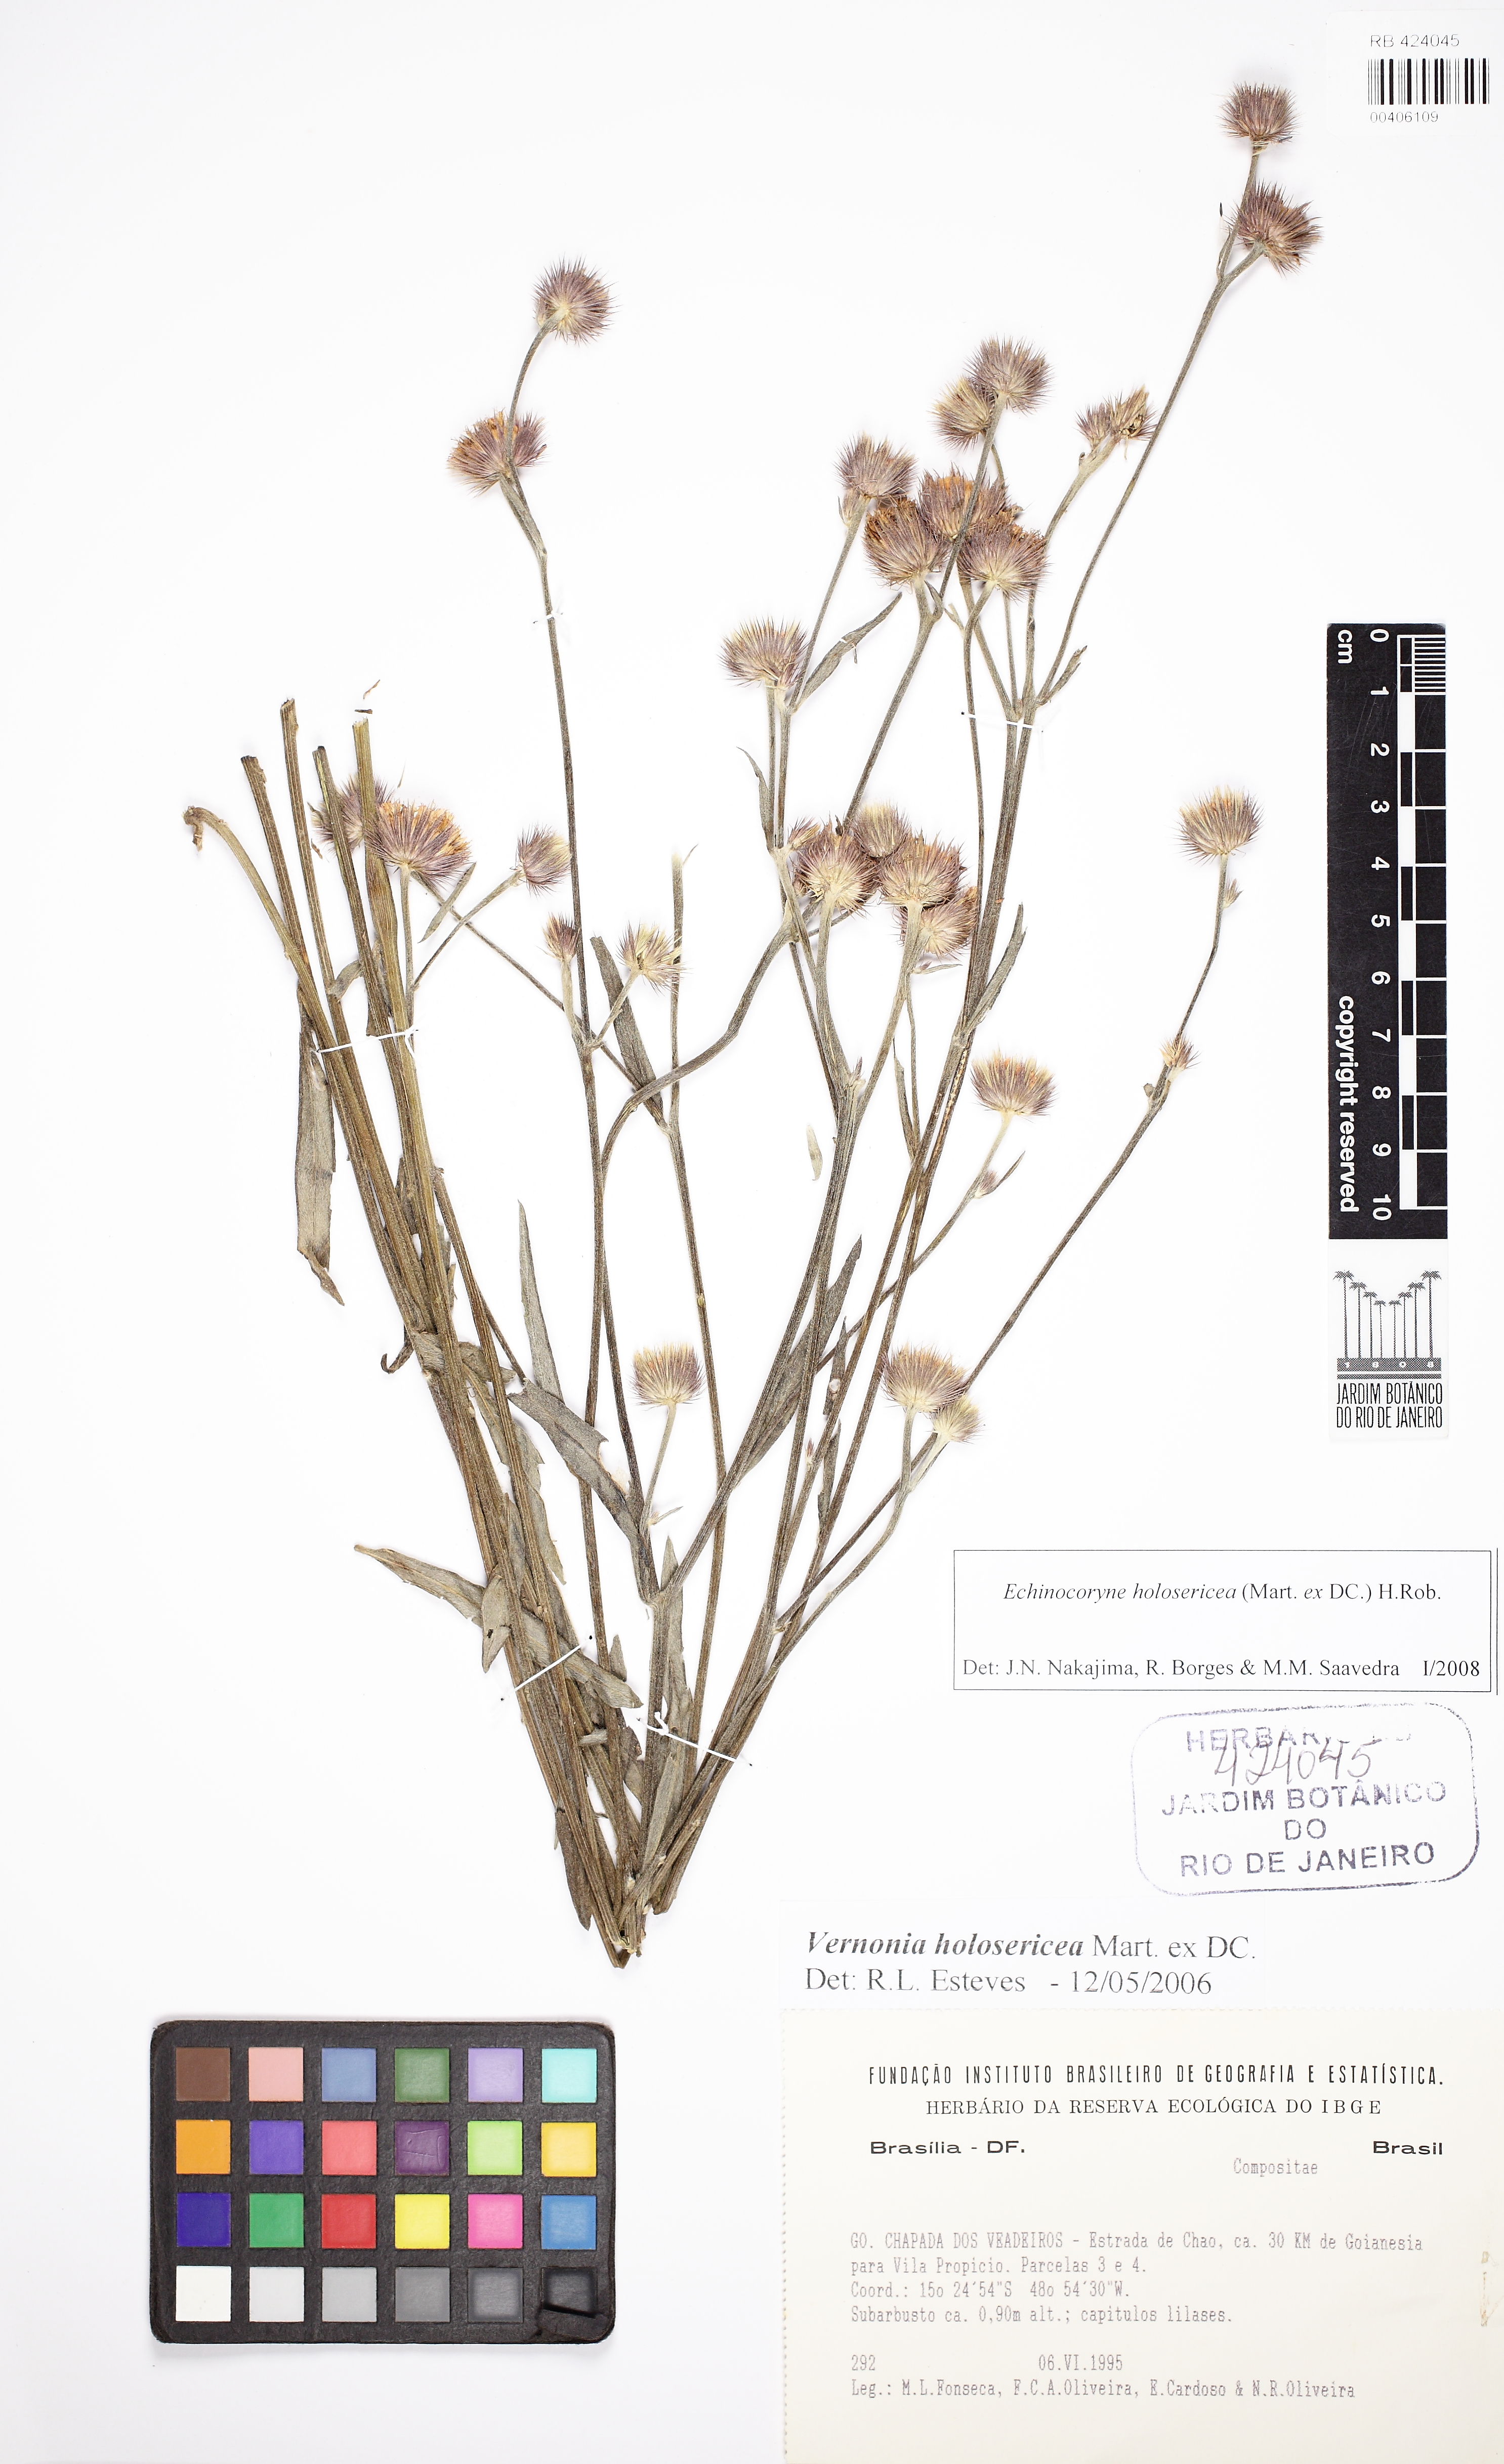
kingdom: Plantae
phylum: Tracheophyta
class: Magnoliopsida
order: Asterales
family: Asteraceae
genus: Echinocoryne
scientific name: Echinocoryne holosericea
